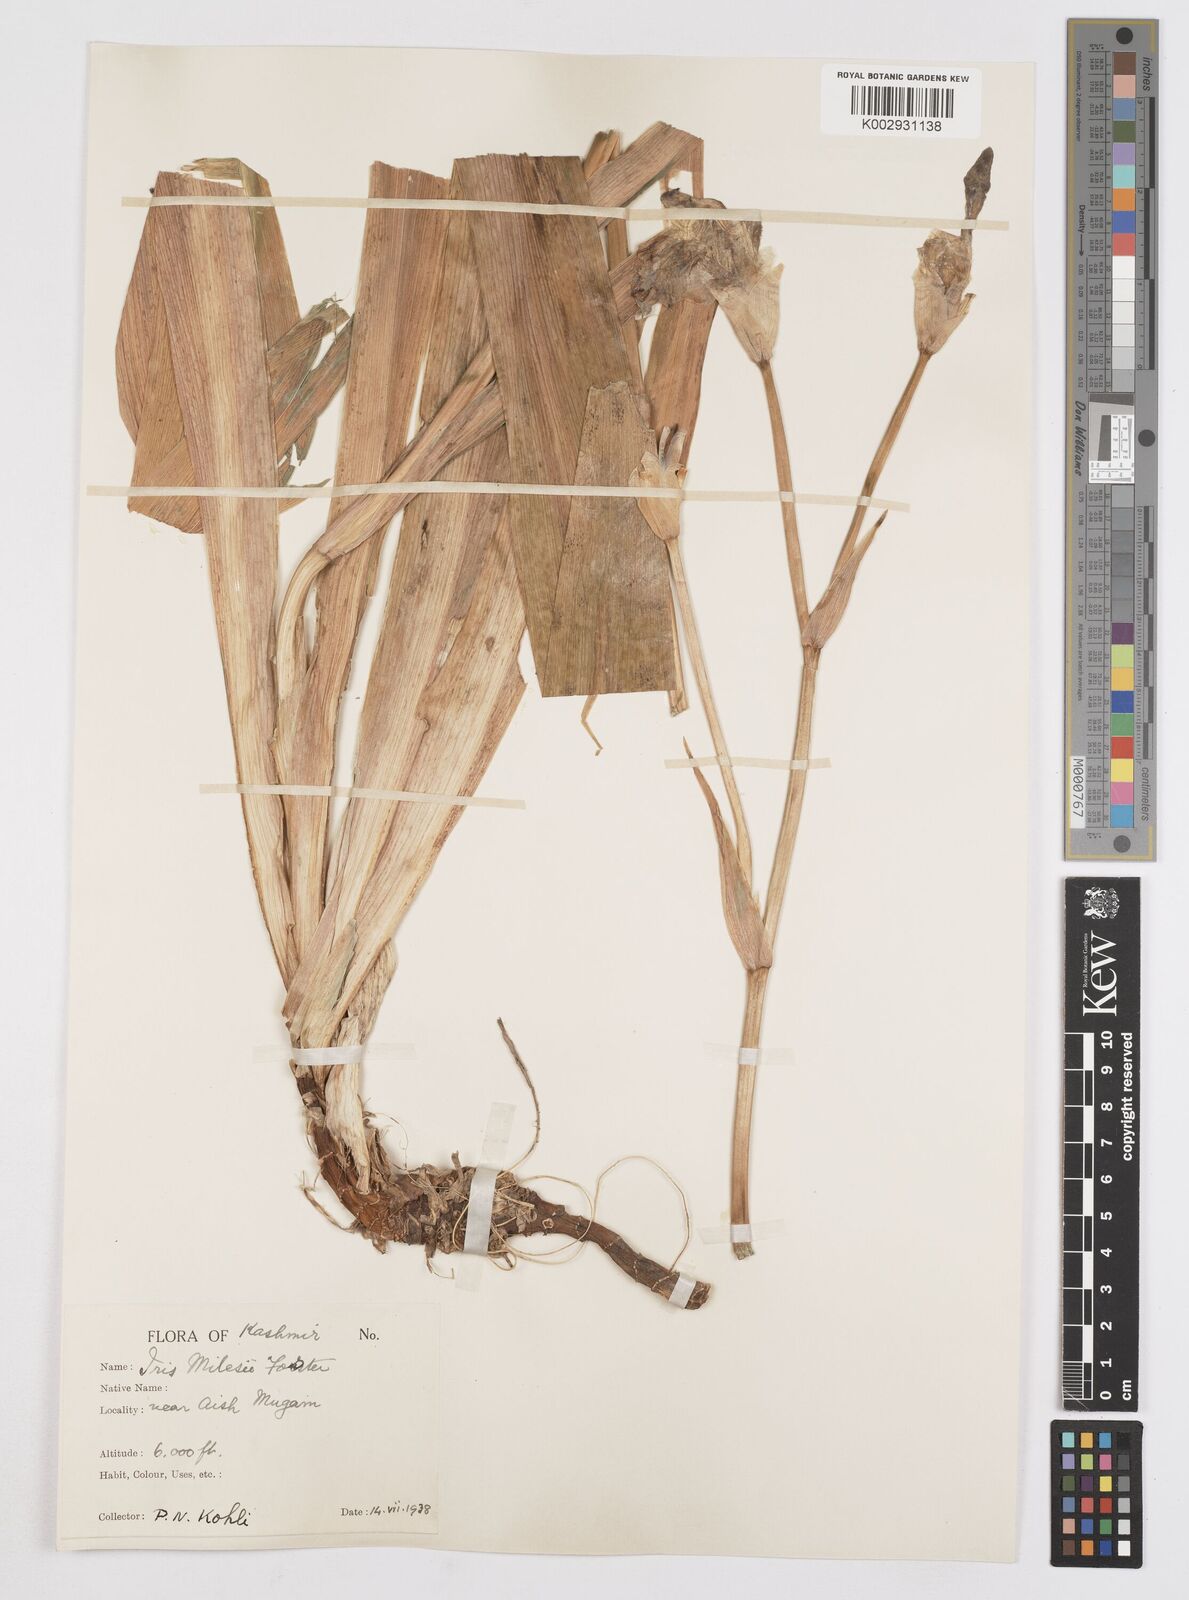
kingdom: Plantae
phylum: Tracheophyta
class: Liliopsida
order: Asparagales
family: Iridaceae
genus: Iris
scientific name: Iris milesii
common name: Red-flower iris
